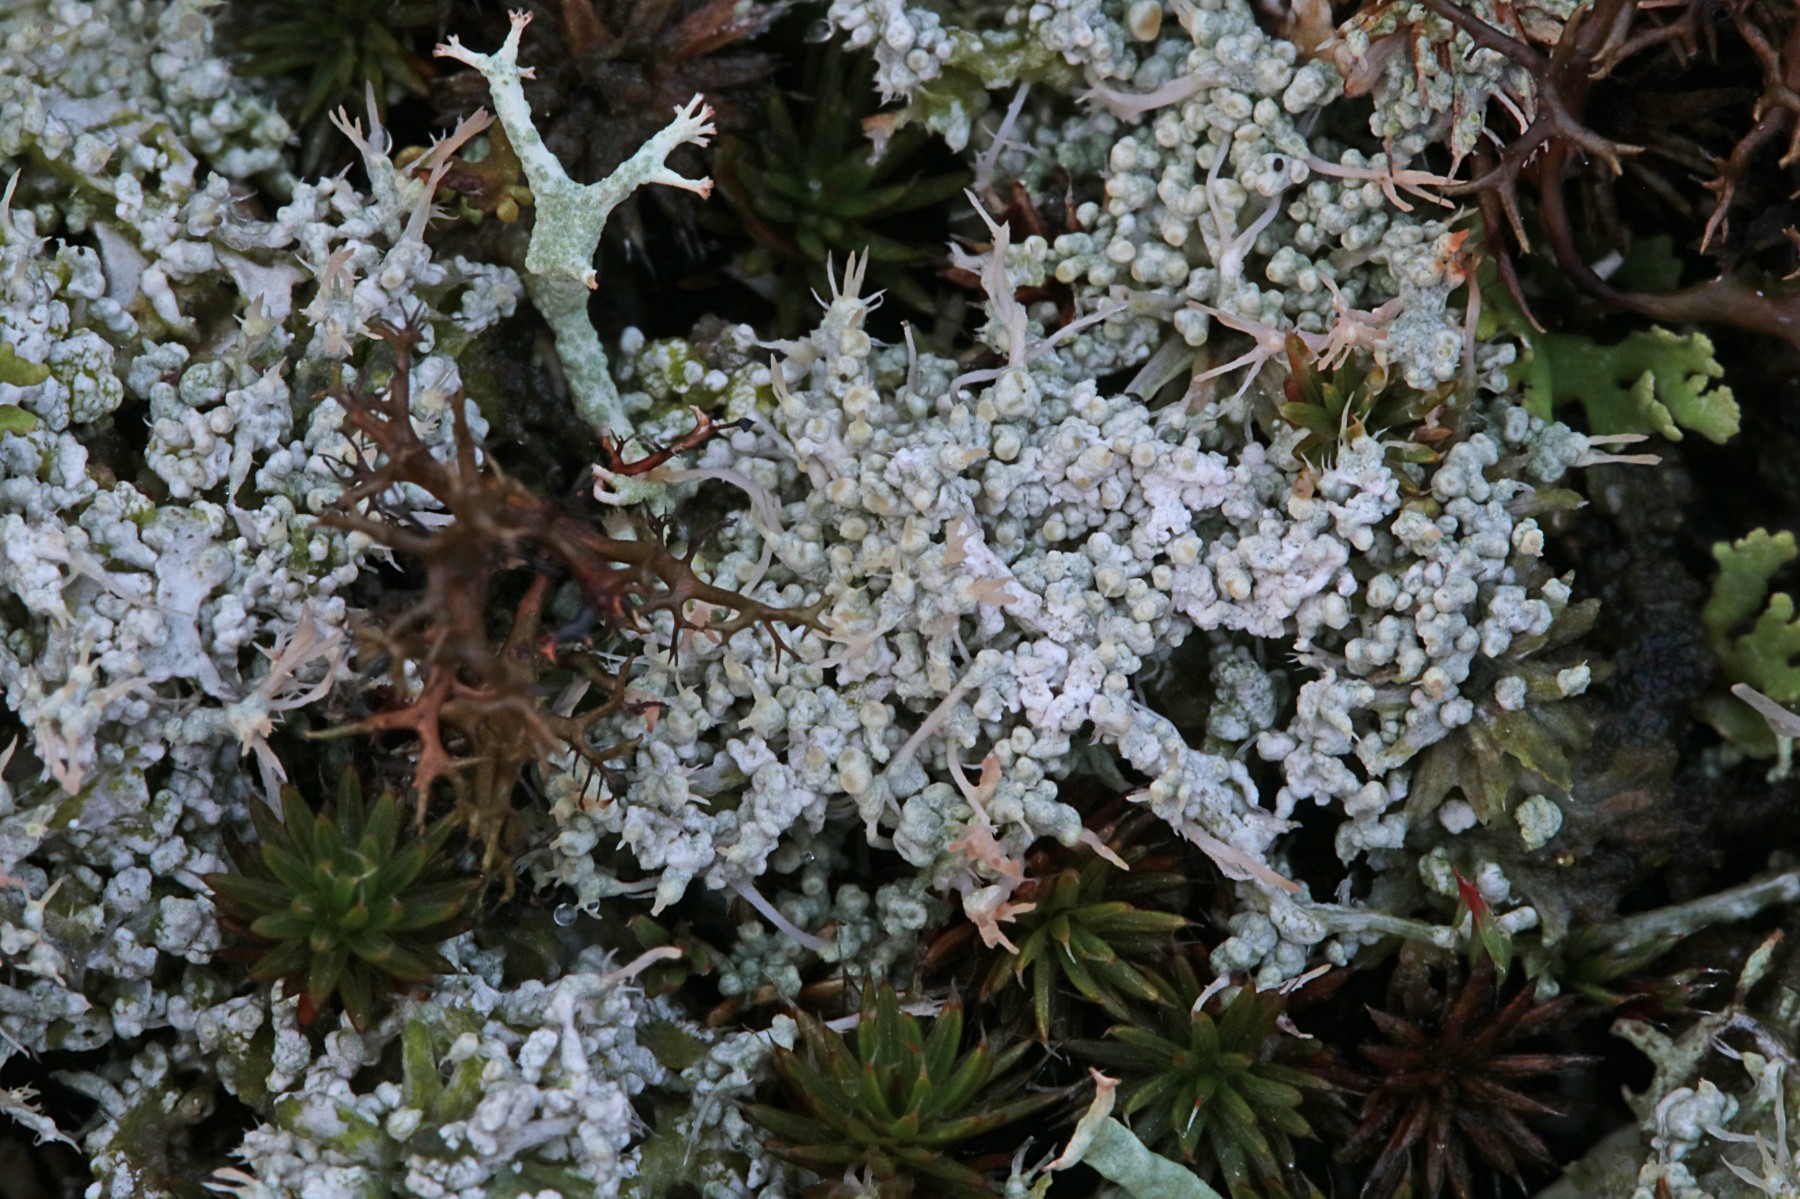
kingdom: Fungi
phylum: Ascomycota
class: Lecanoromycetes
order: Pertusariales
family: Ochrolechiaceae
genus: Ochrolechia
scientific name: Ochrolechia frigida
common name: fjeld-blegskivelav
